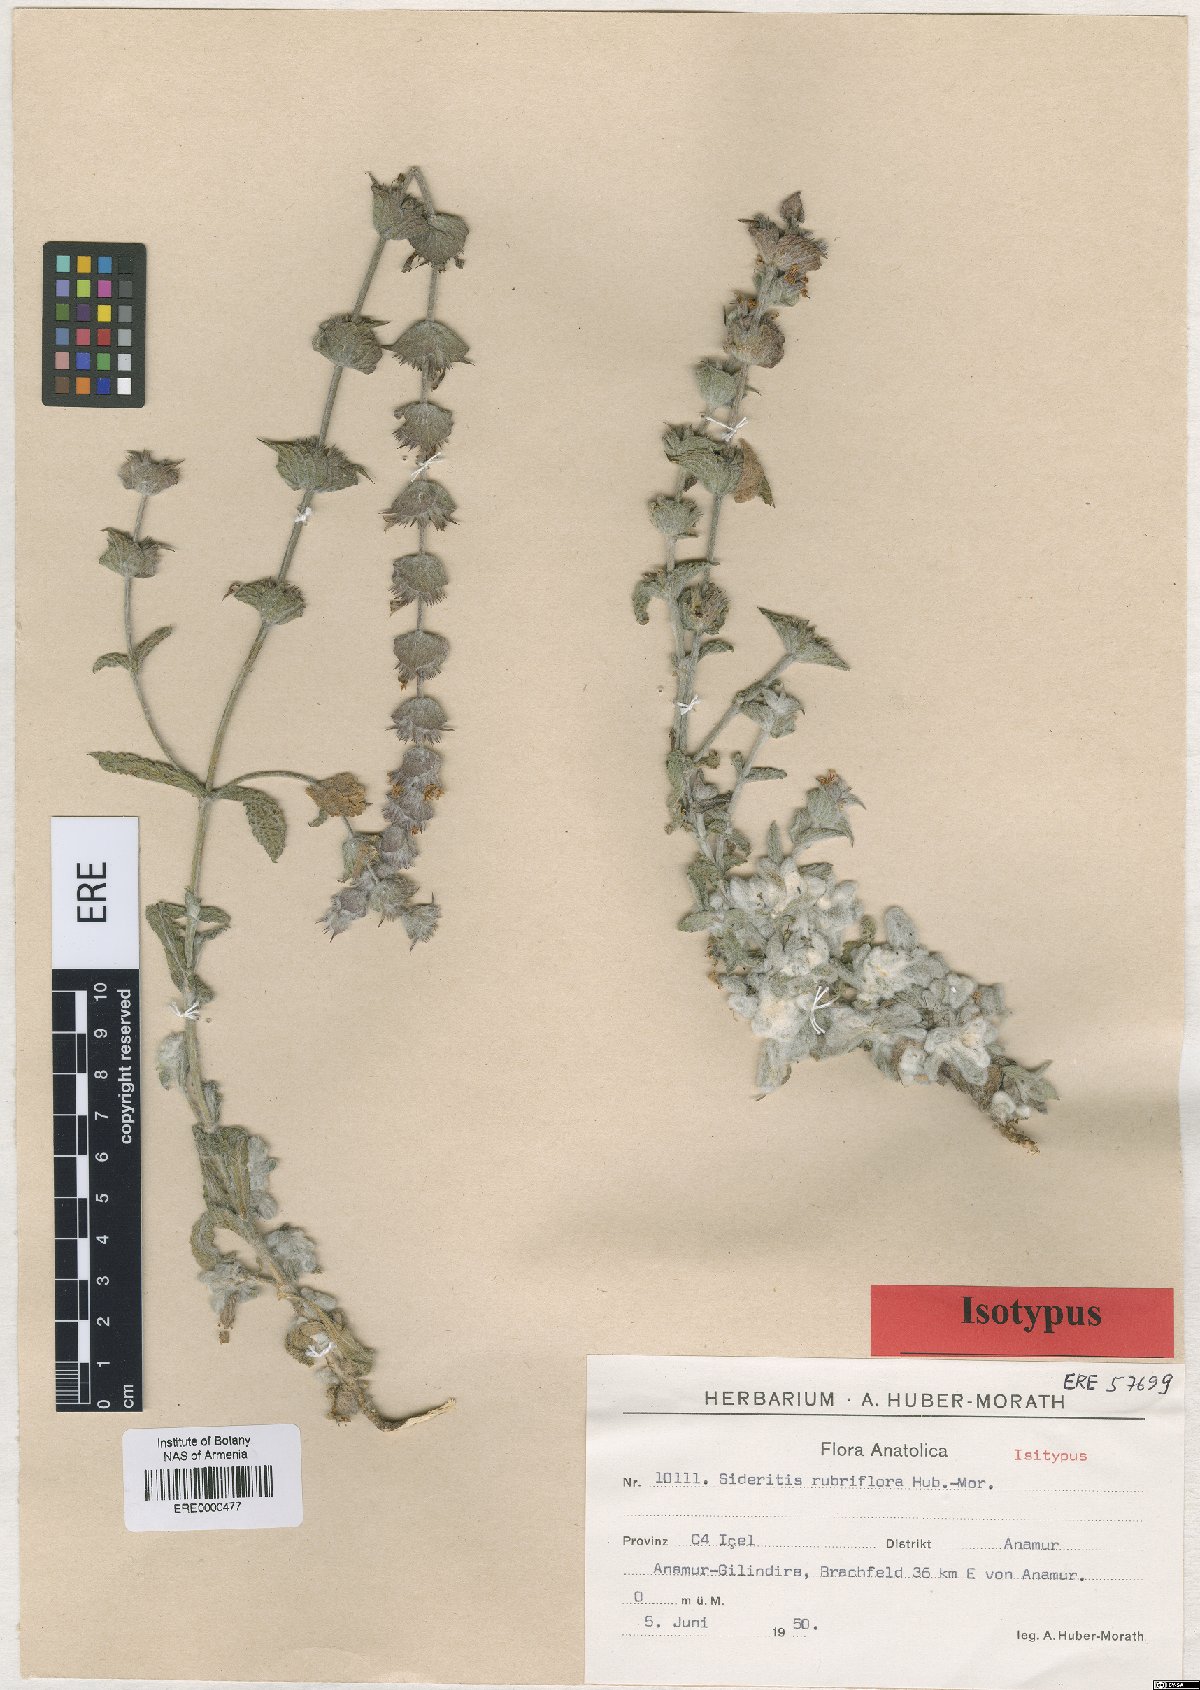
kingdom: Plantae
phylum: Tracheophyta
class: Magnoliopsida
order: Lamiales
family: Lamiaceae
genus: Sideritis
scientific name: Sideritis rubriflora
